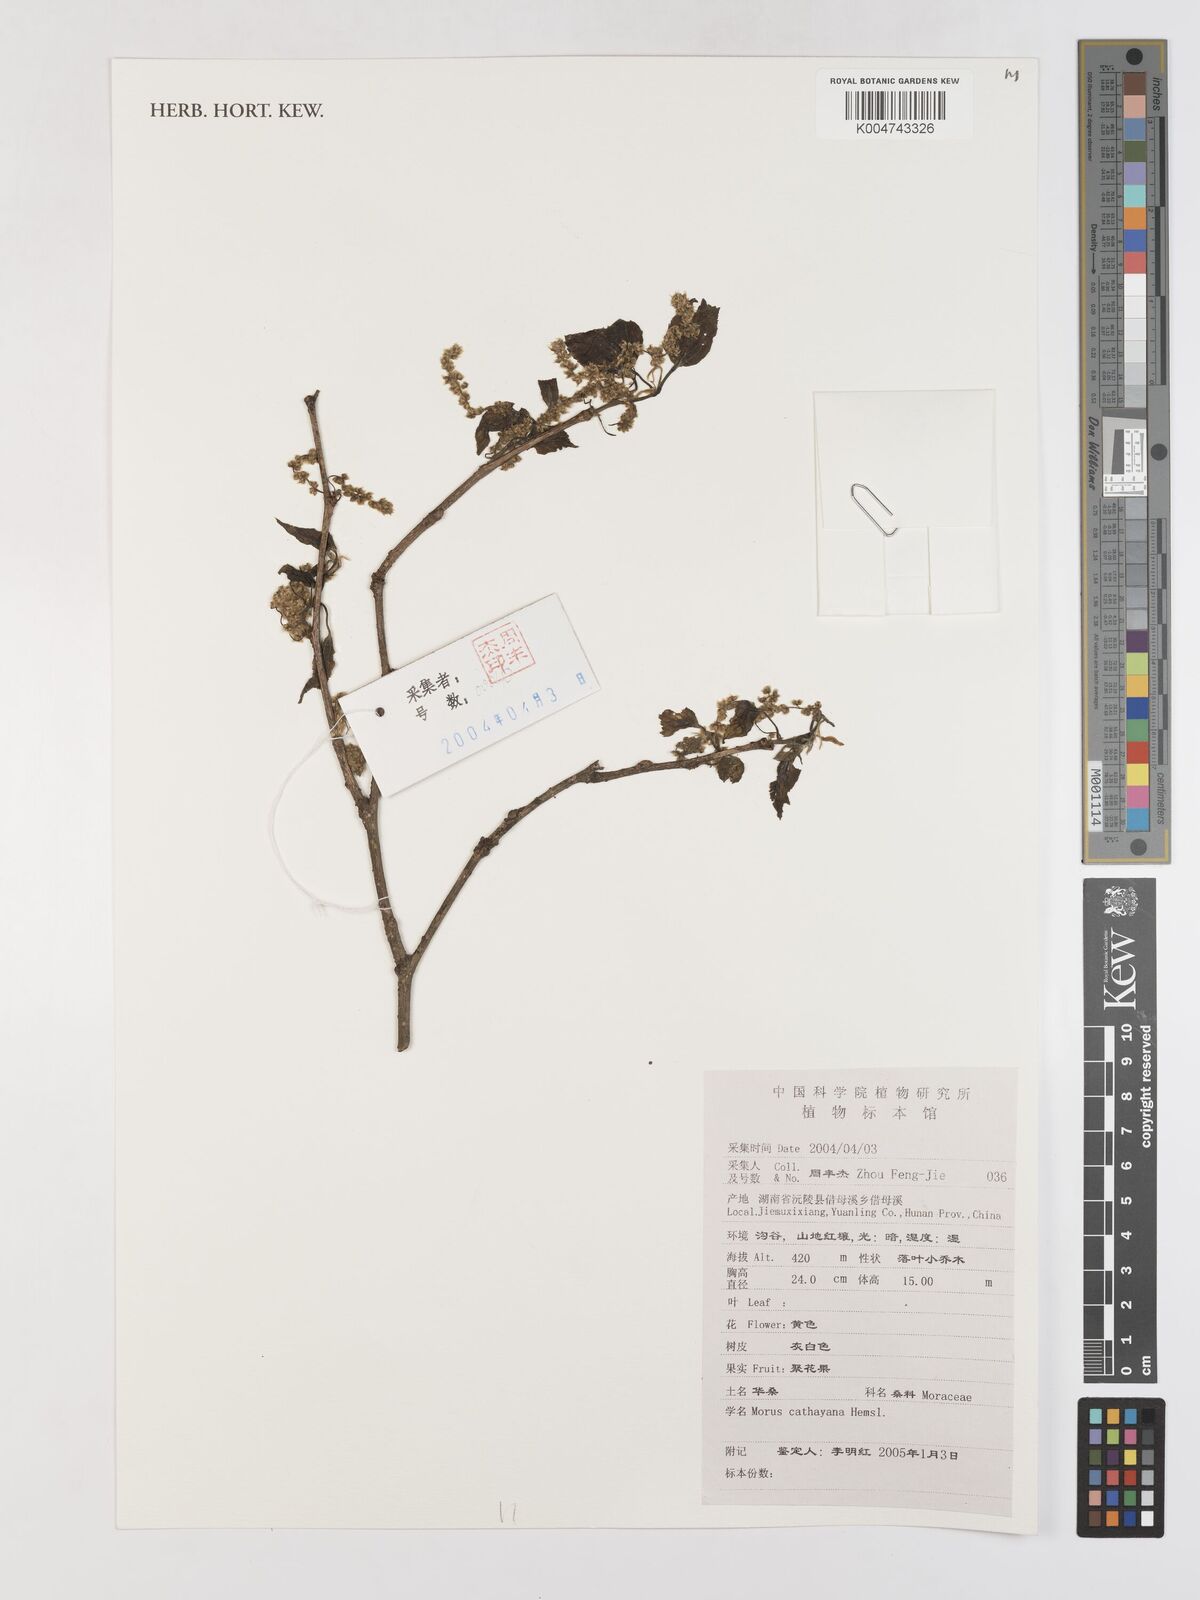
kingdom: Plantae
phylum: Tracheophyta
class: Magnoliopsida
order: Rosales
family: Moraceae
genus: Morus
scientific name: Morus cathayana
